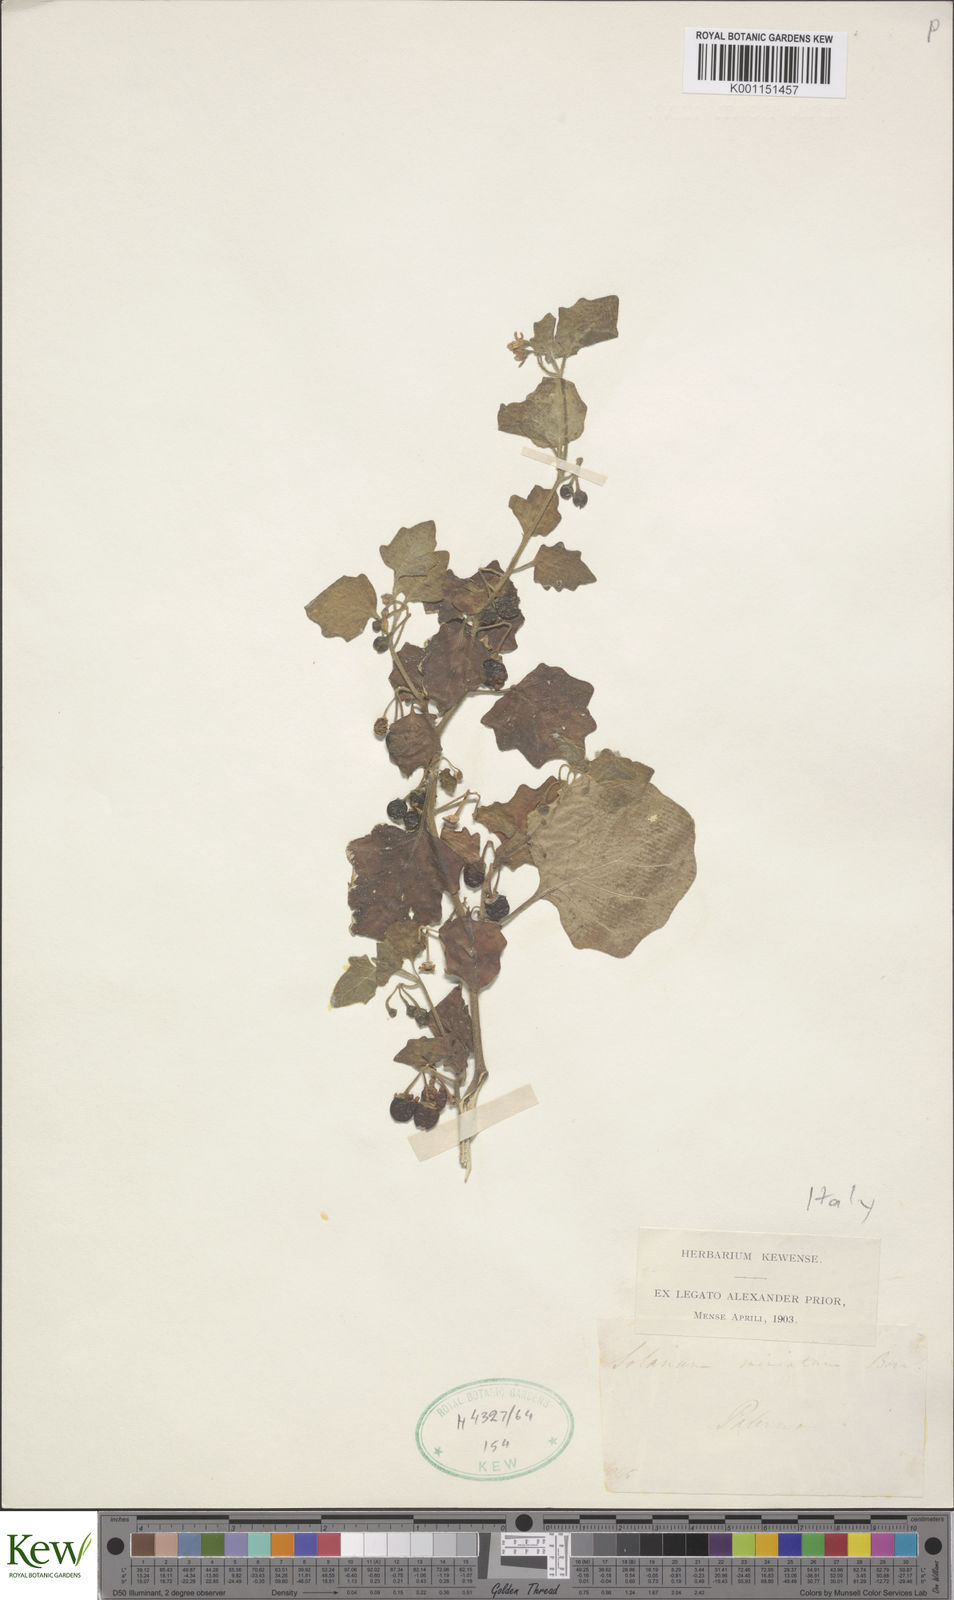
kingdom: Plantae
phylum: Tracheophyta
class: Magnoliopsida
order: Solanales
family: Solanaceae
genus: Solanum
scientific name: Solanum villosum
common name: Red nightshade
